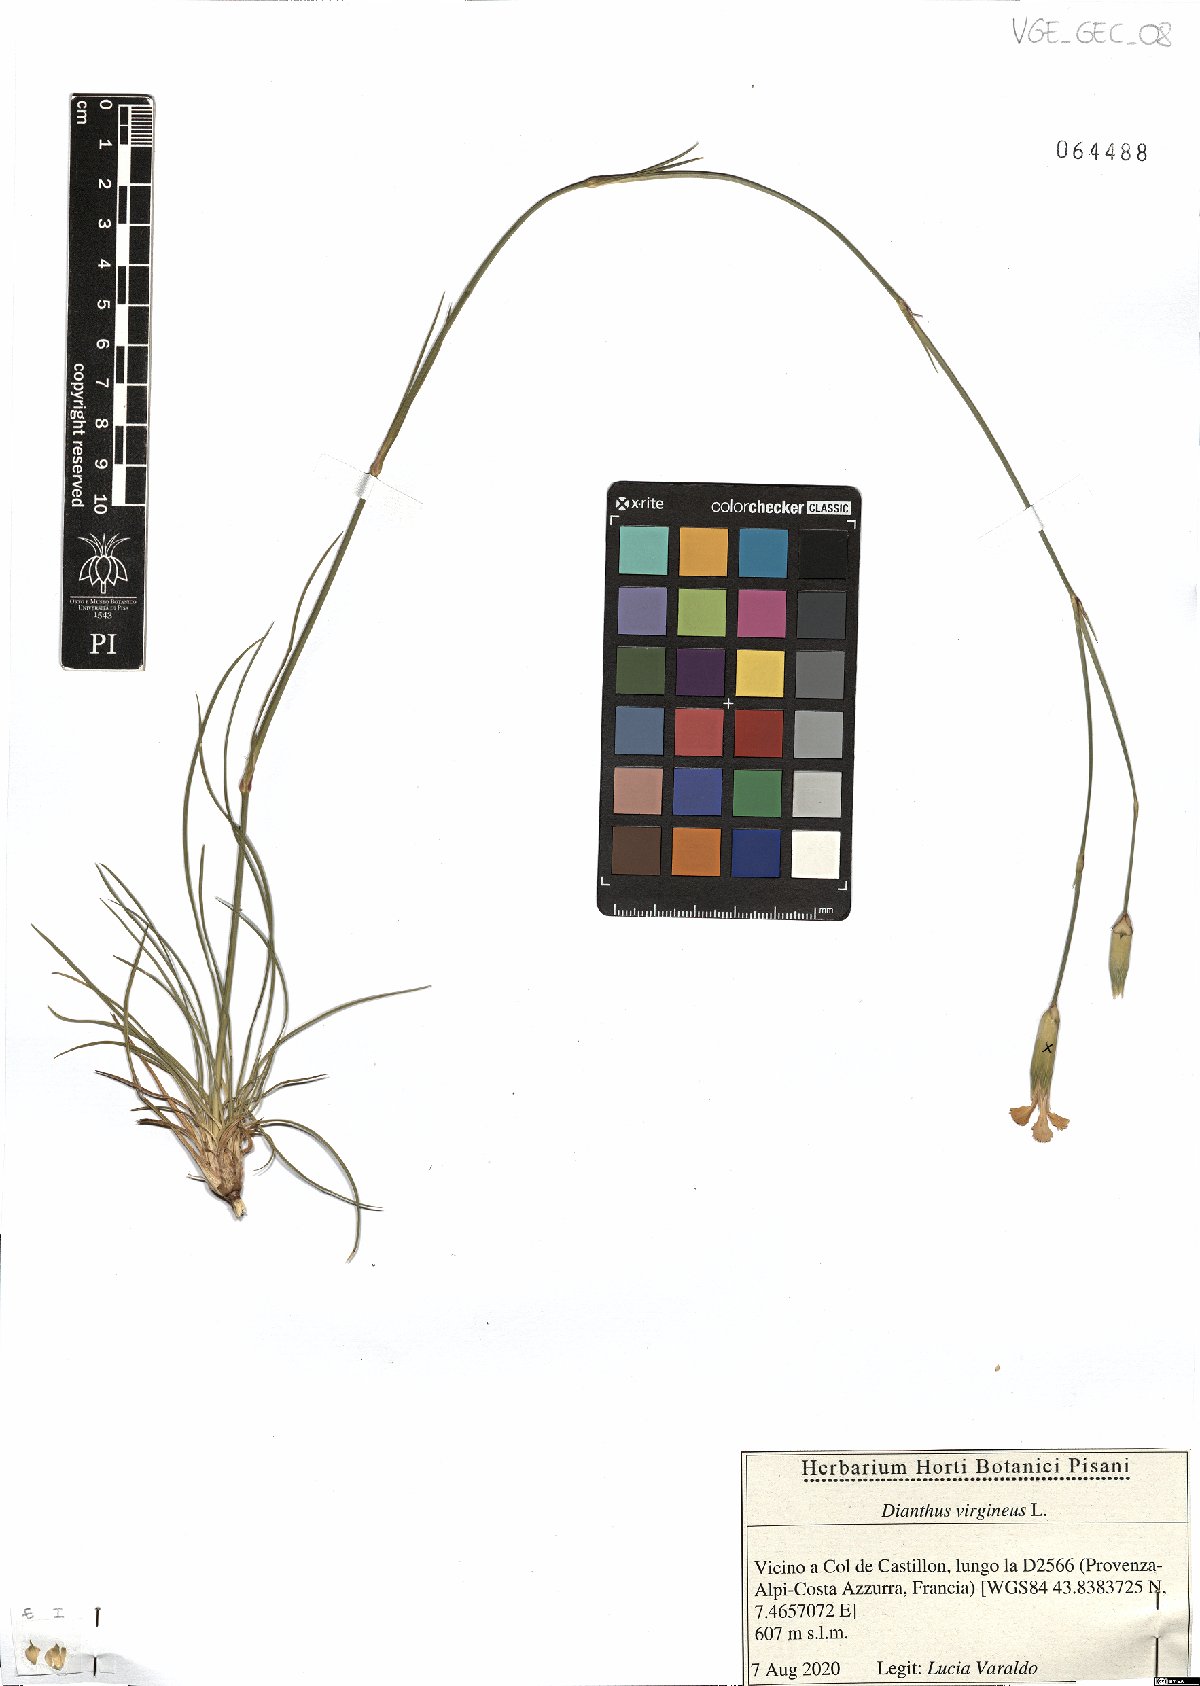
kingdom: Plantae
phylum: Tracheophyta
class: Magnoliopsida
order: Caryophyllales
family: Caryophyllaceae
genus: Dianthus
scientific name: Dianthus virgineus
